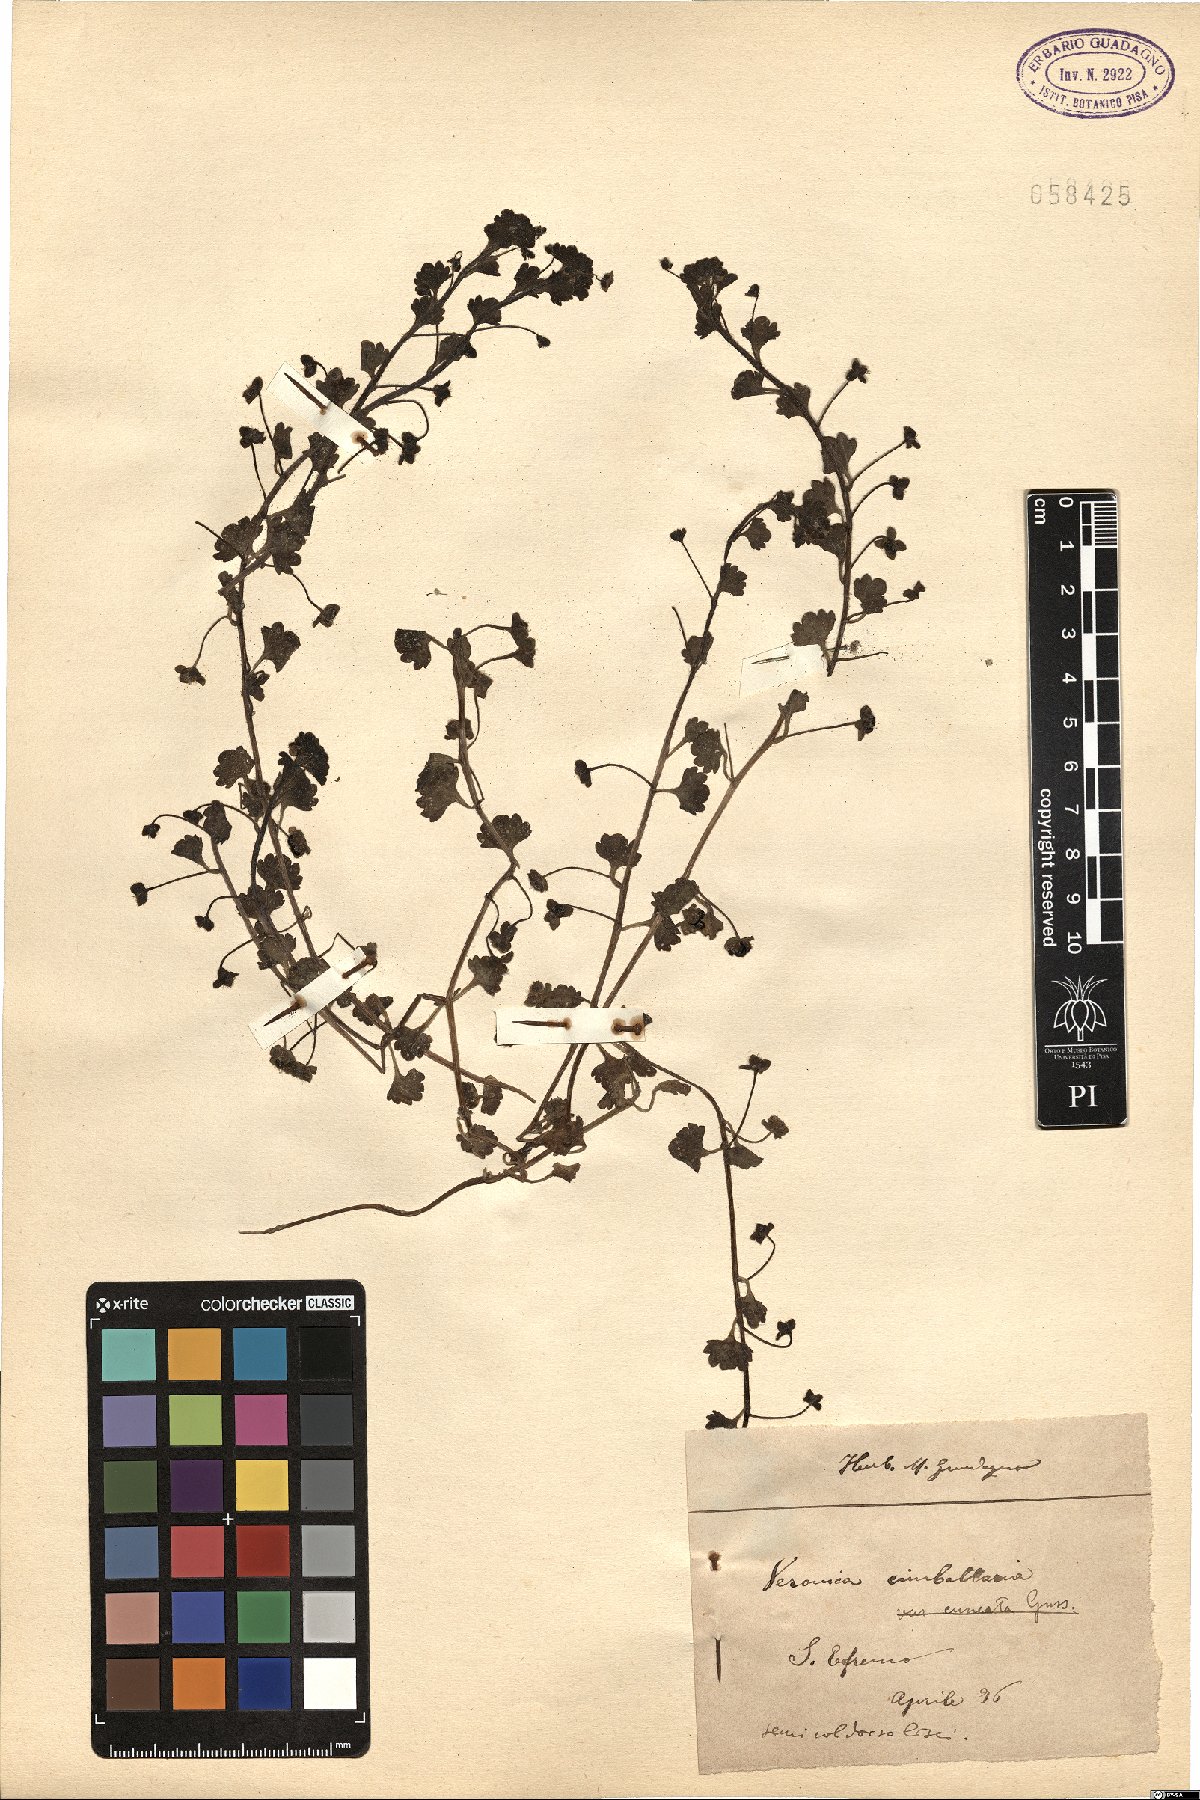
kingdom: Plantae
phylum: Tracheophyta
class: Magnoliopsida
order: Lamiales
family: Plantaginaceae
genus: Veronica
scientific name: Veronica cymbalaria
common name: Pale speedwell
